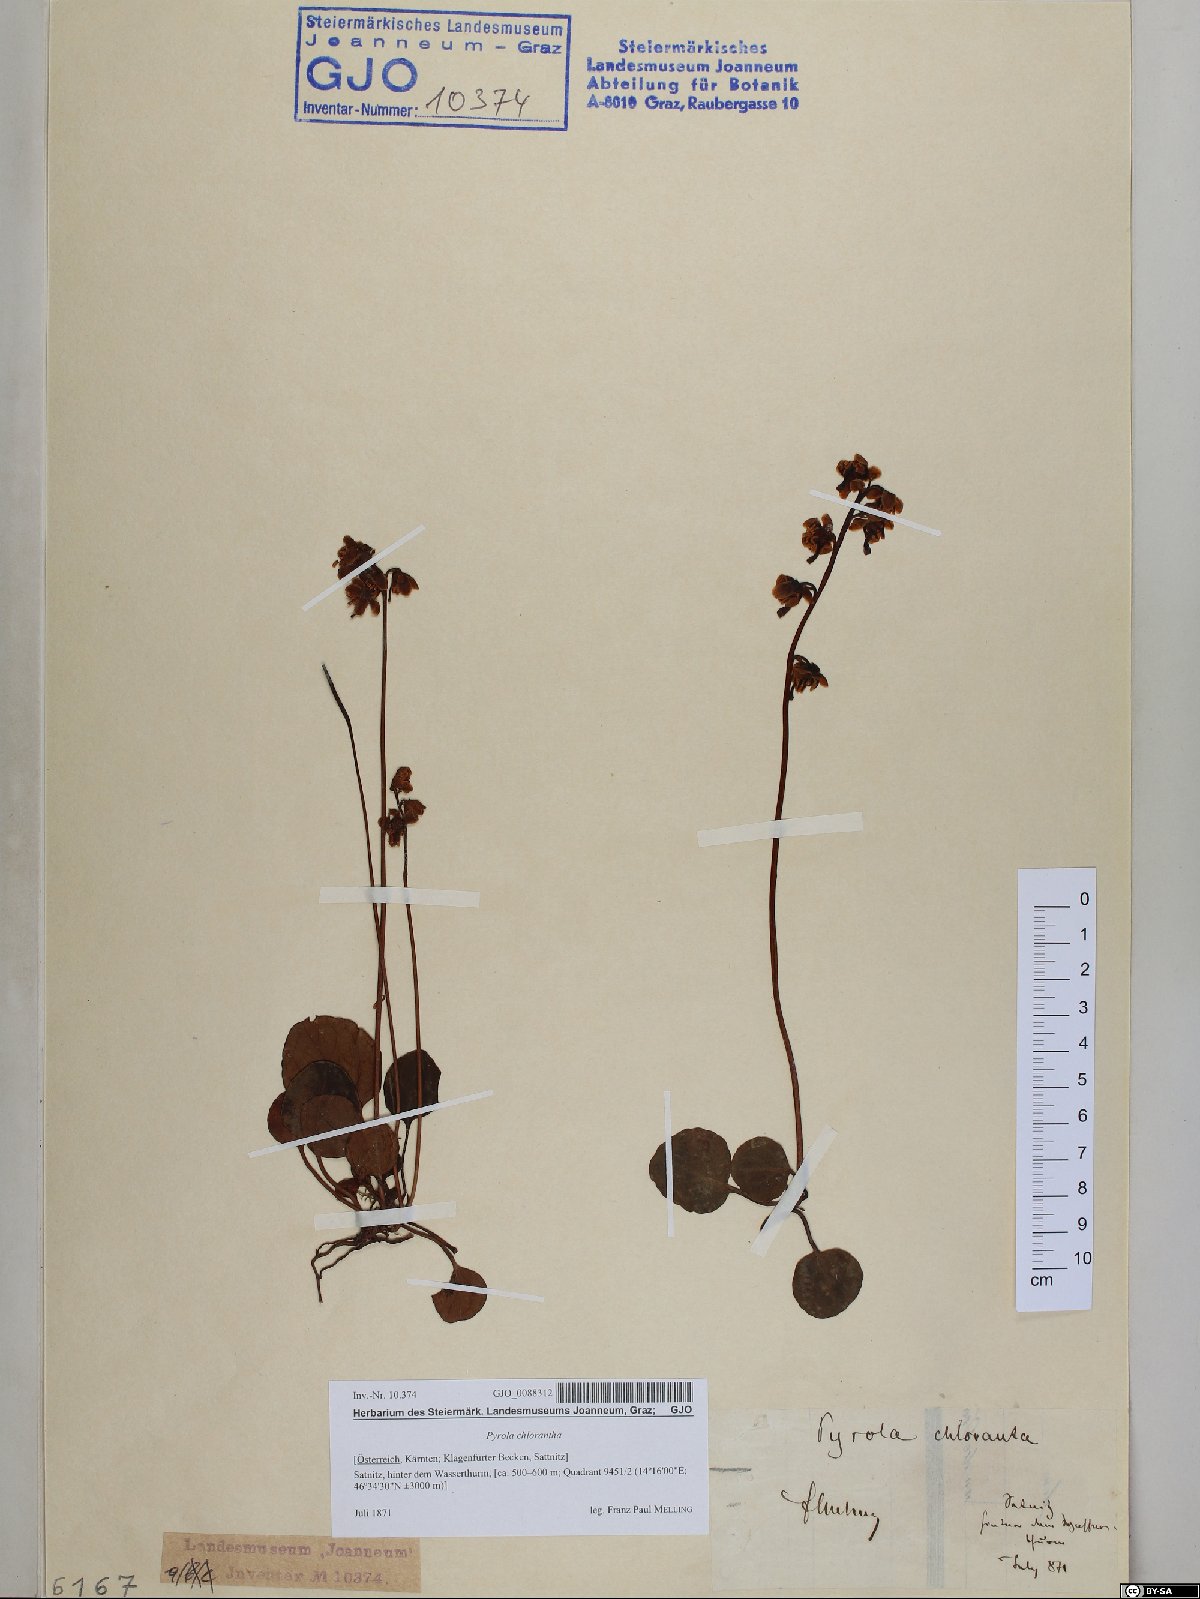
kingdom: Plantae
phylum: Tracheophyta
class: Magnoliopsida
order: Ericales
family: Ericaceae
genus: Pyrola
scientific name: Pyrola chlorantha
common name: Green wintergreen
